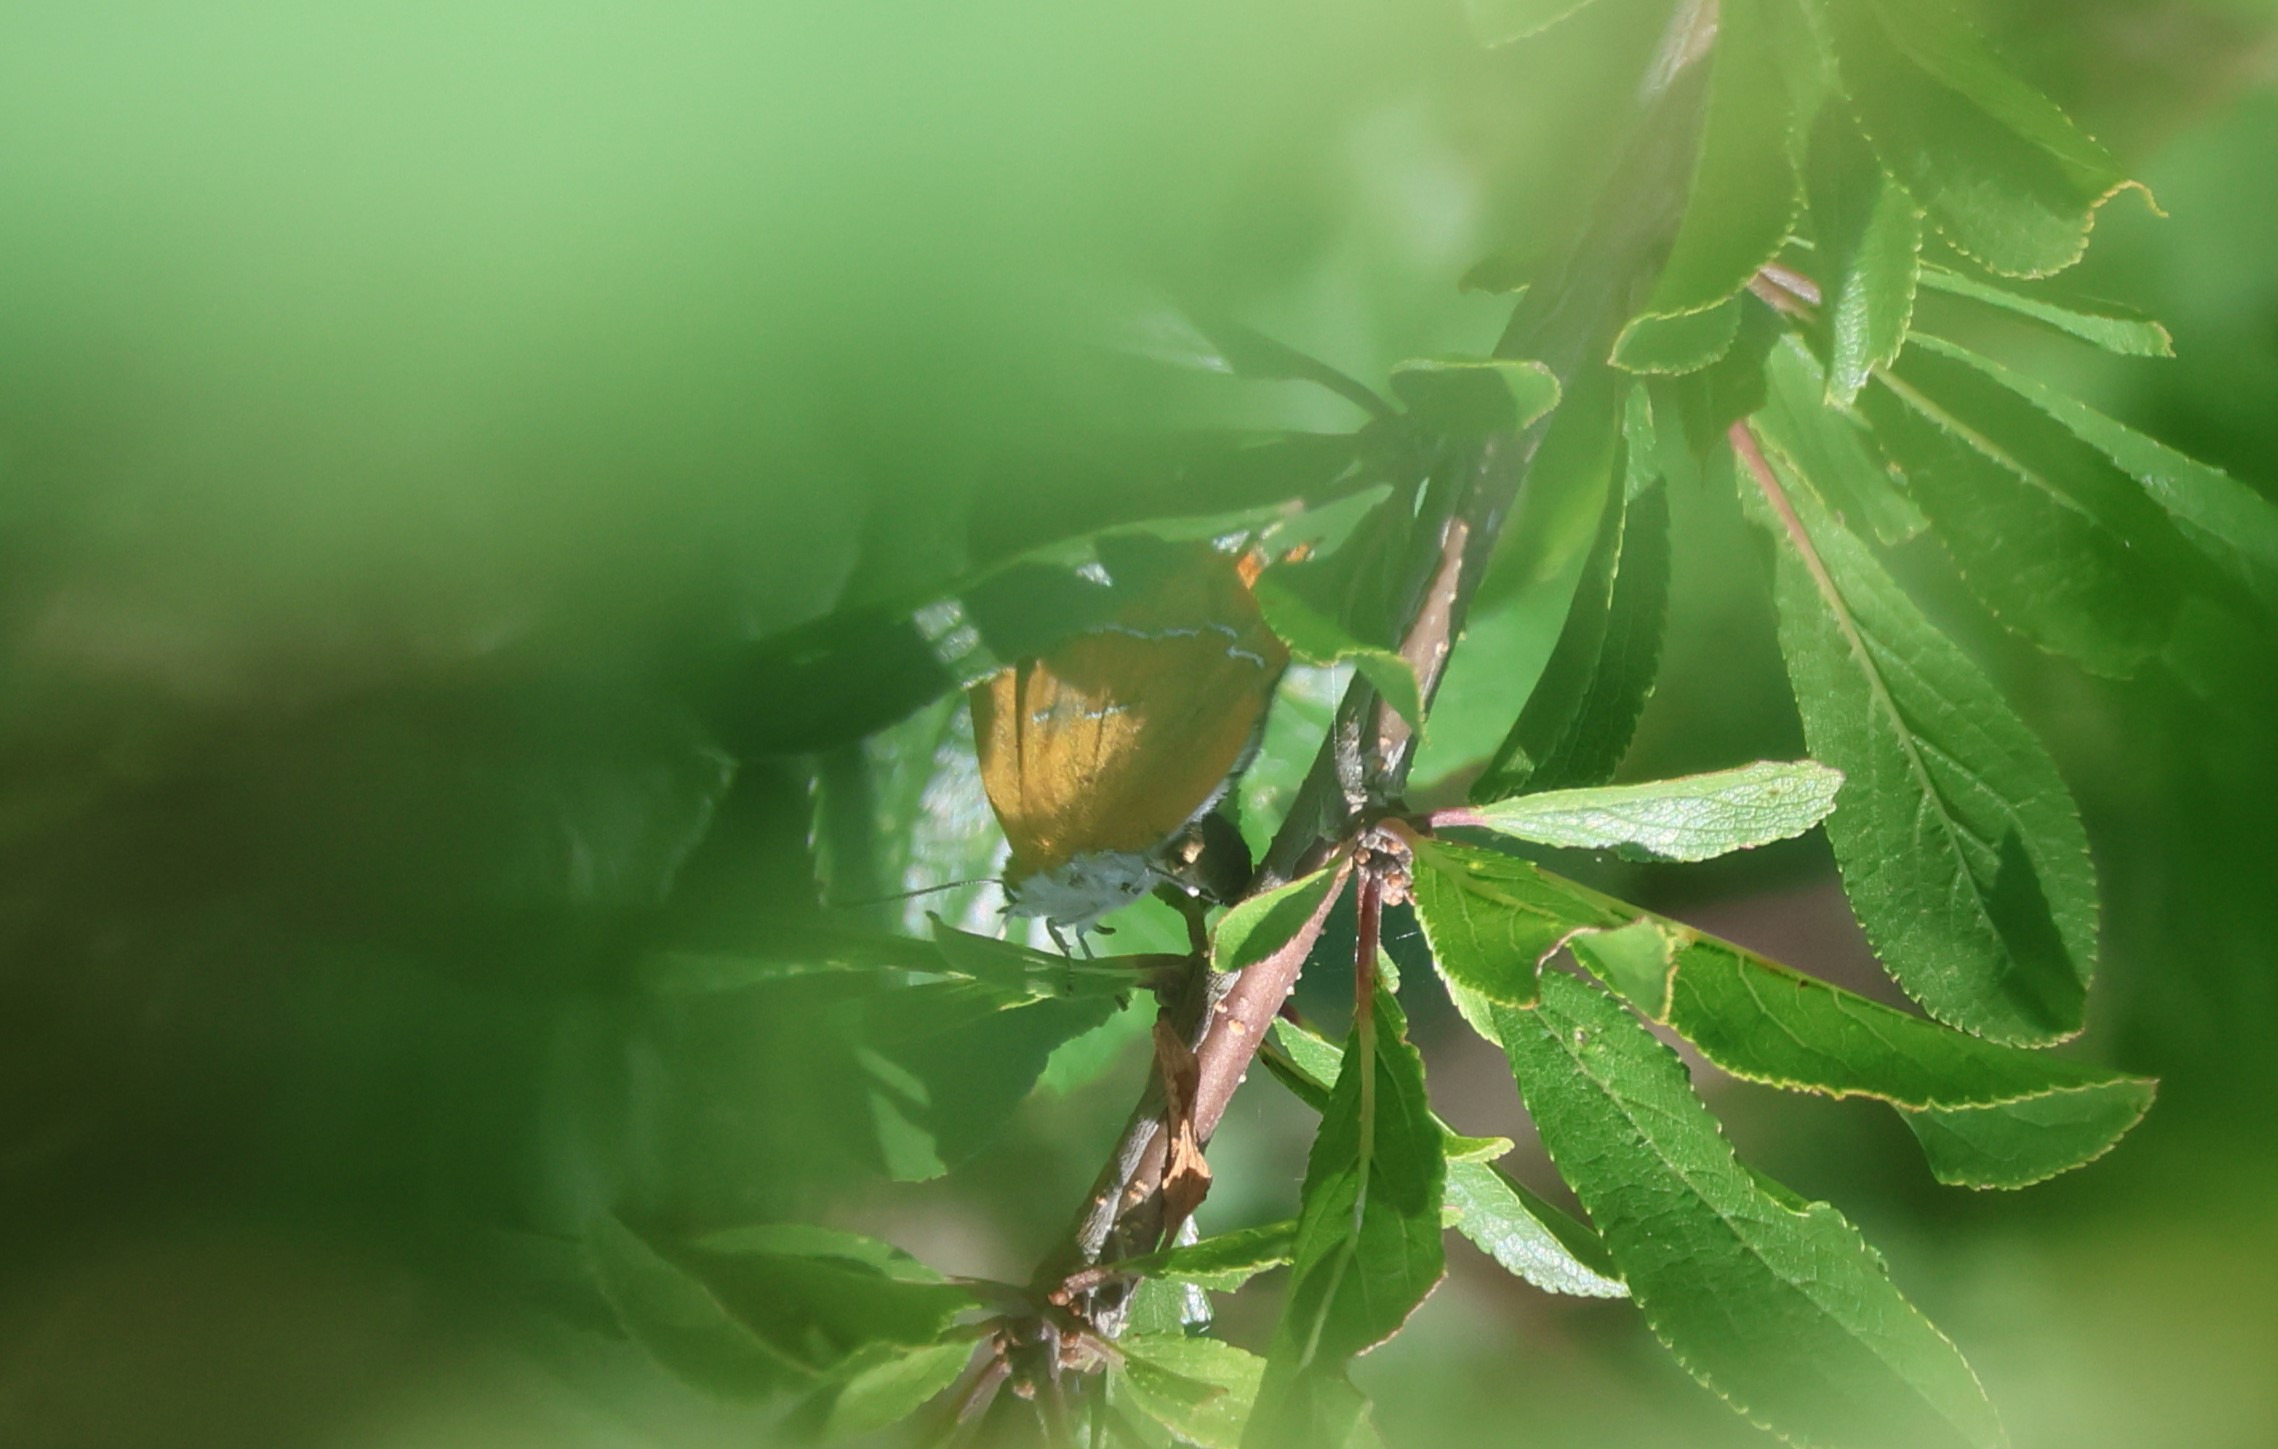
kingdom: Animalia
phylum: Arthropoda
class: Insecta
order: Lepidoptera
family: Lycaenidae
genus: Thecla
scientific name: Thecla betulae
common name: Guldhale
